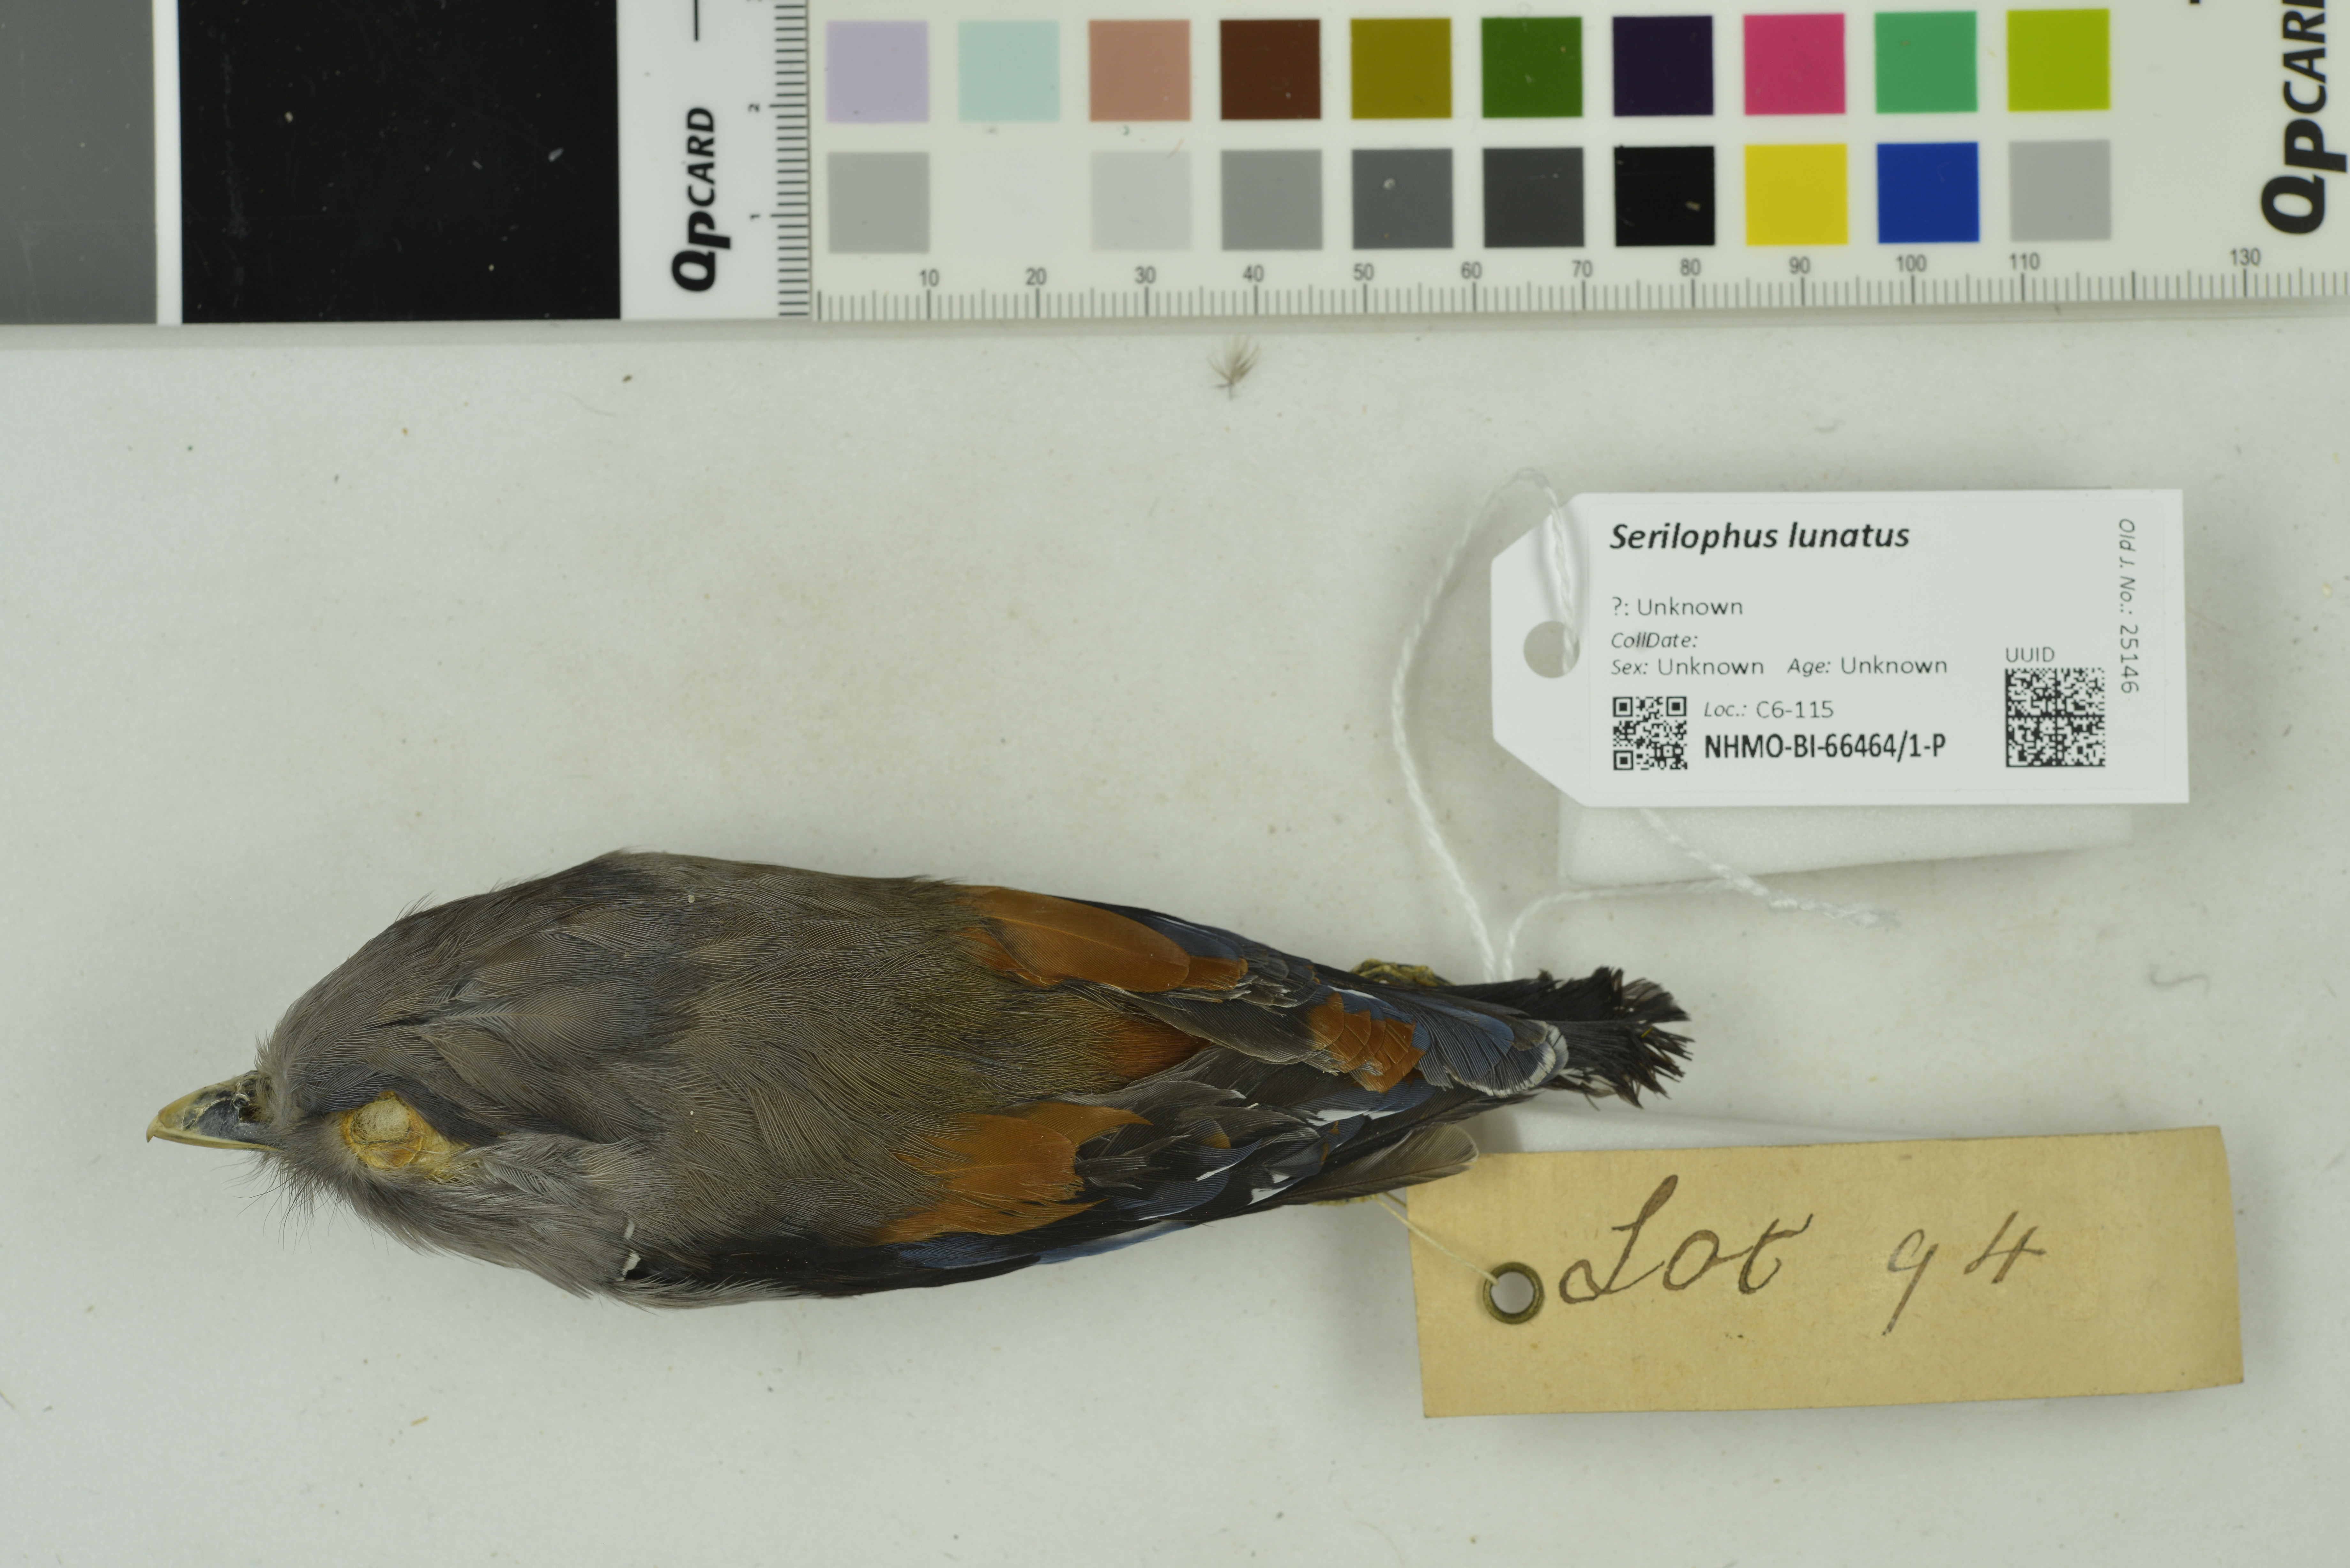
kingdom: Animalia
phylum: Chordata
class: Aves
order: Passeriformes
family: Eurylaimidae
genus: Serilophus
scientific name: Serilophus lunatus
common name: Silver-breasted broadbill
